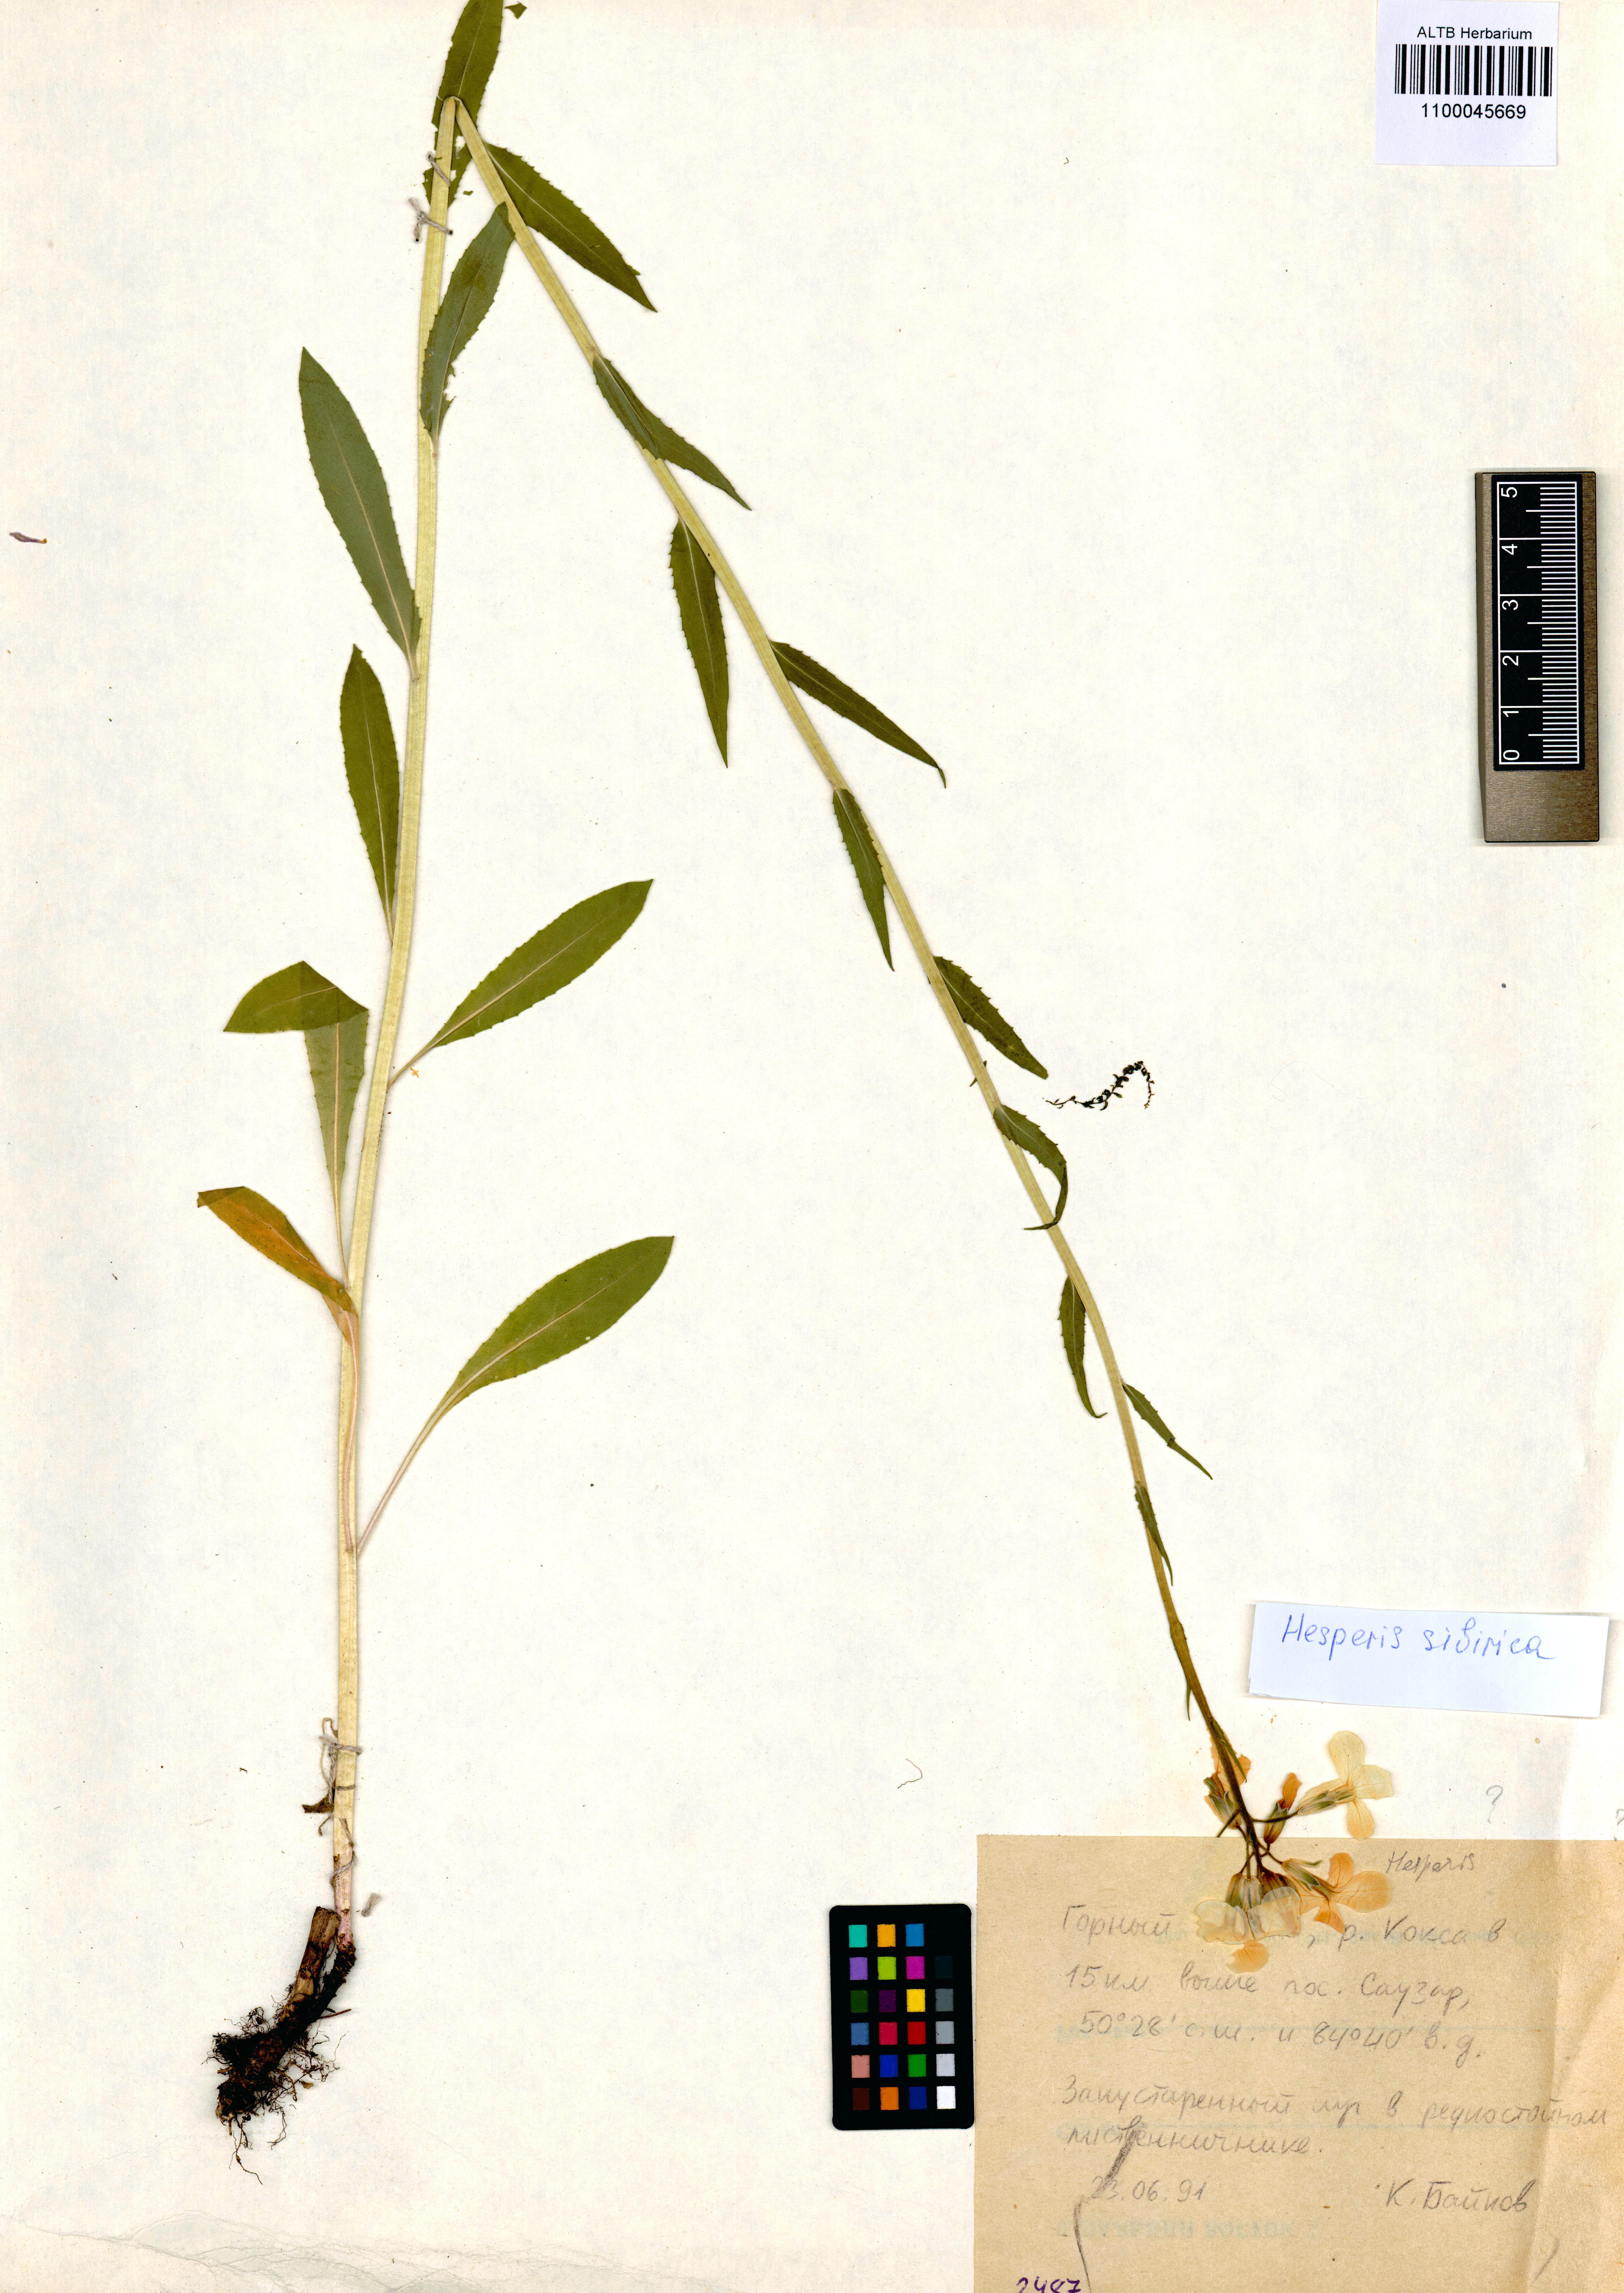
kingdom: Plantae
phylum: Tracheophyta
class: Magnoliopsida
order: Brassicales
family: Brassicaceae
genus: Hesperis
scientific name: Hesperis sibirica
